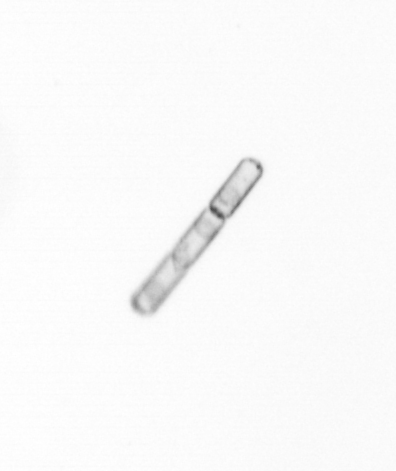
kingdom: Chromista
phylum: Ochrophyta
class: Bacillariophyceae
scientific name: Bacillariophyceae
